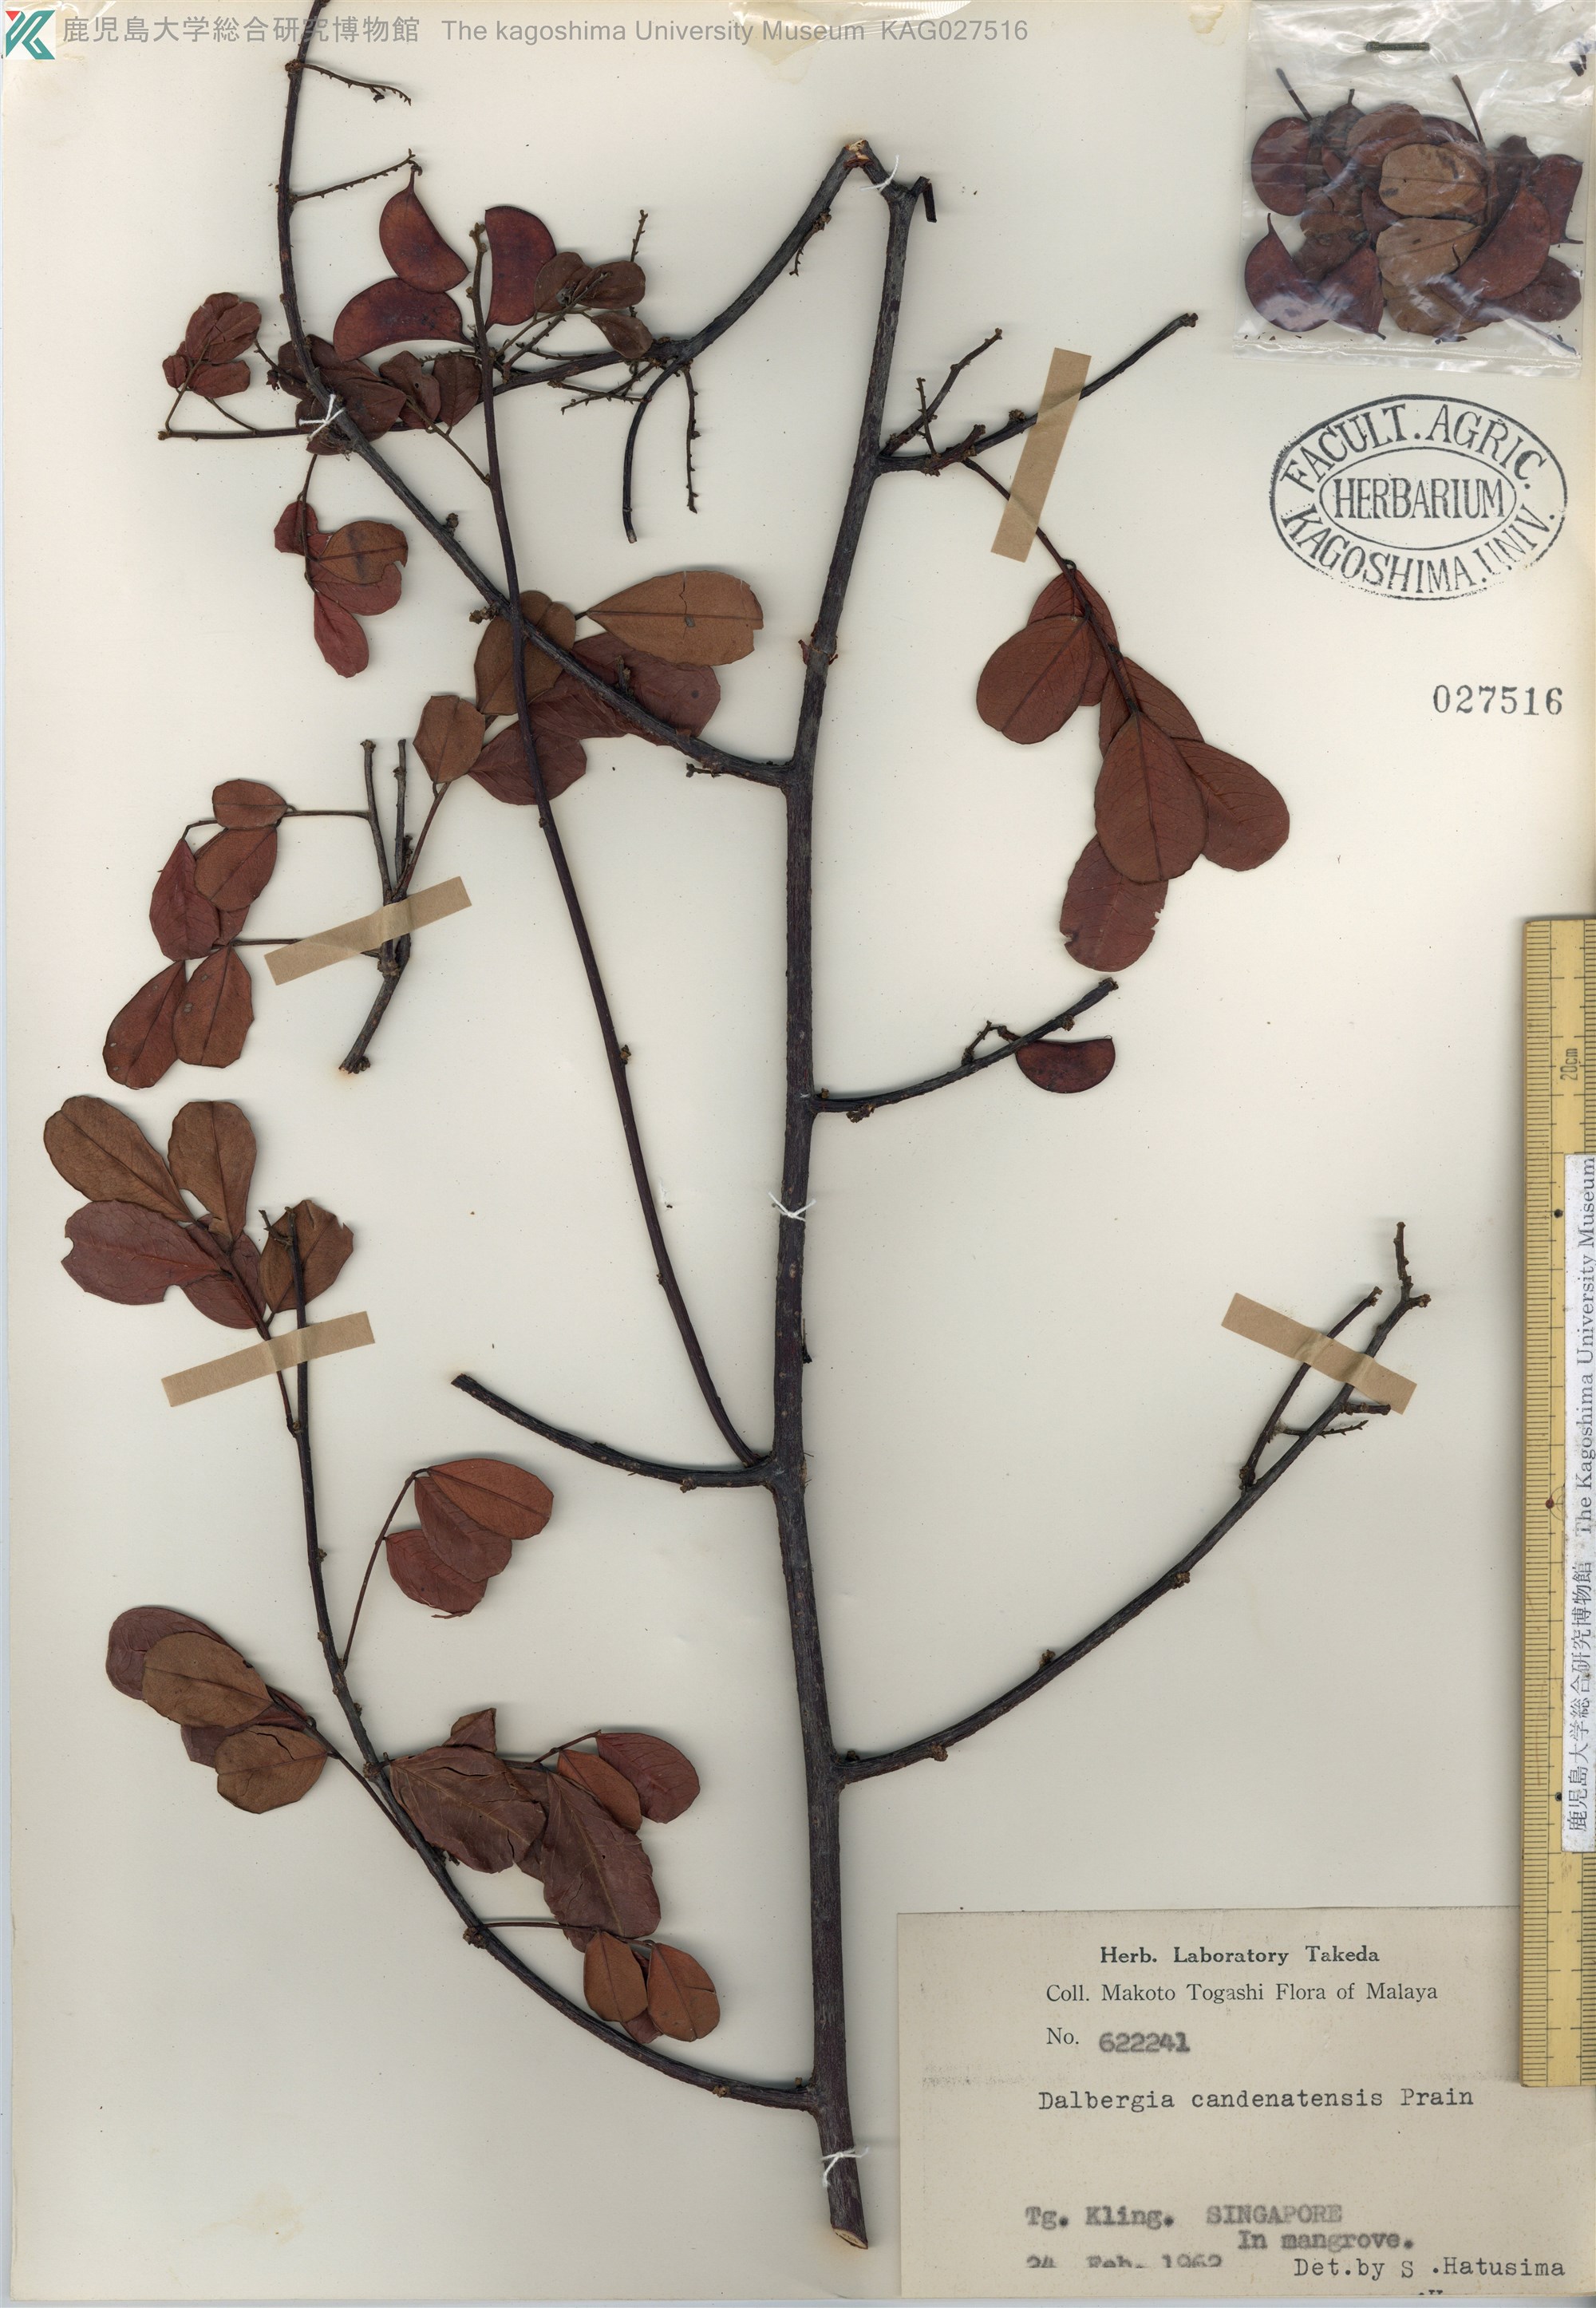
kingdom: Plantae
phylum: Tracheophyta
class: Magnoliopsida
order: Fabales
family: Fabaceae
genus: Dalbergia
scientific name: Dalbergia candenatensis
